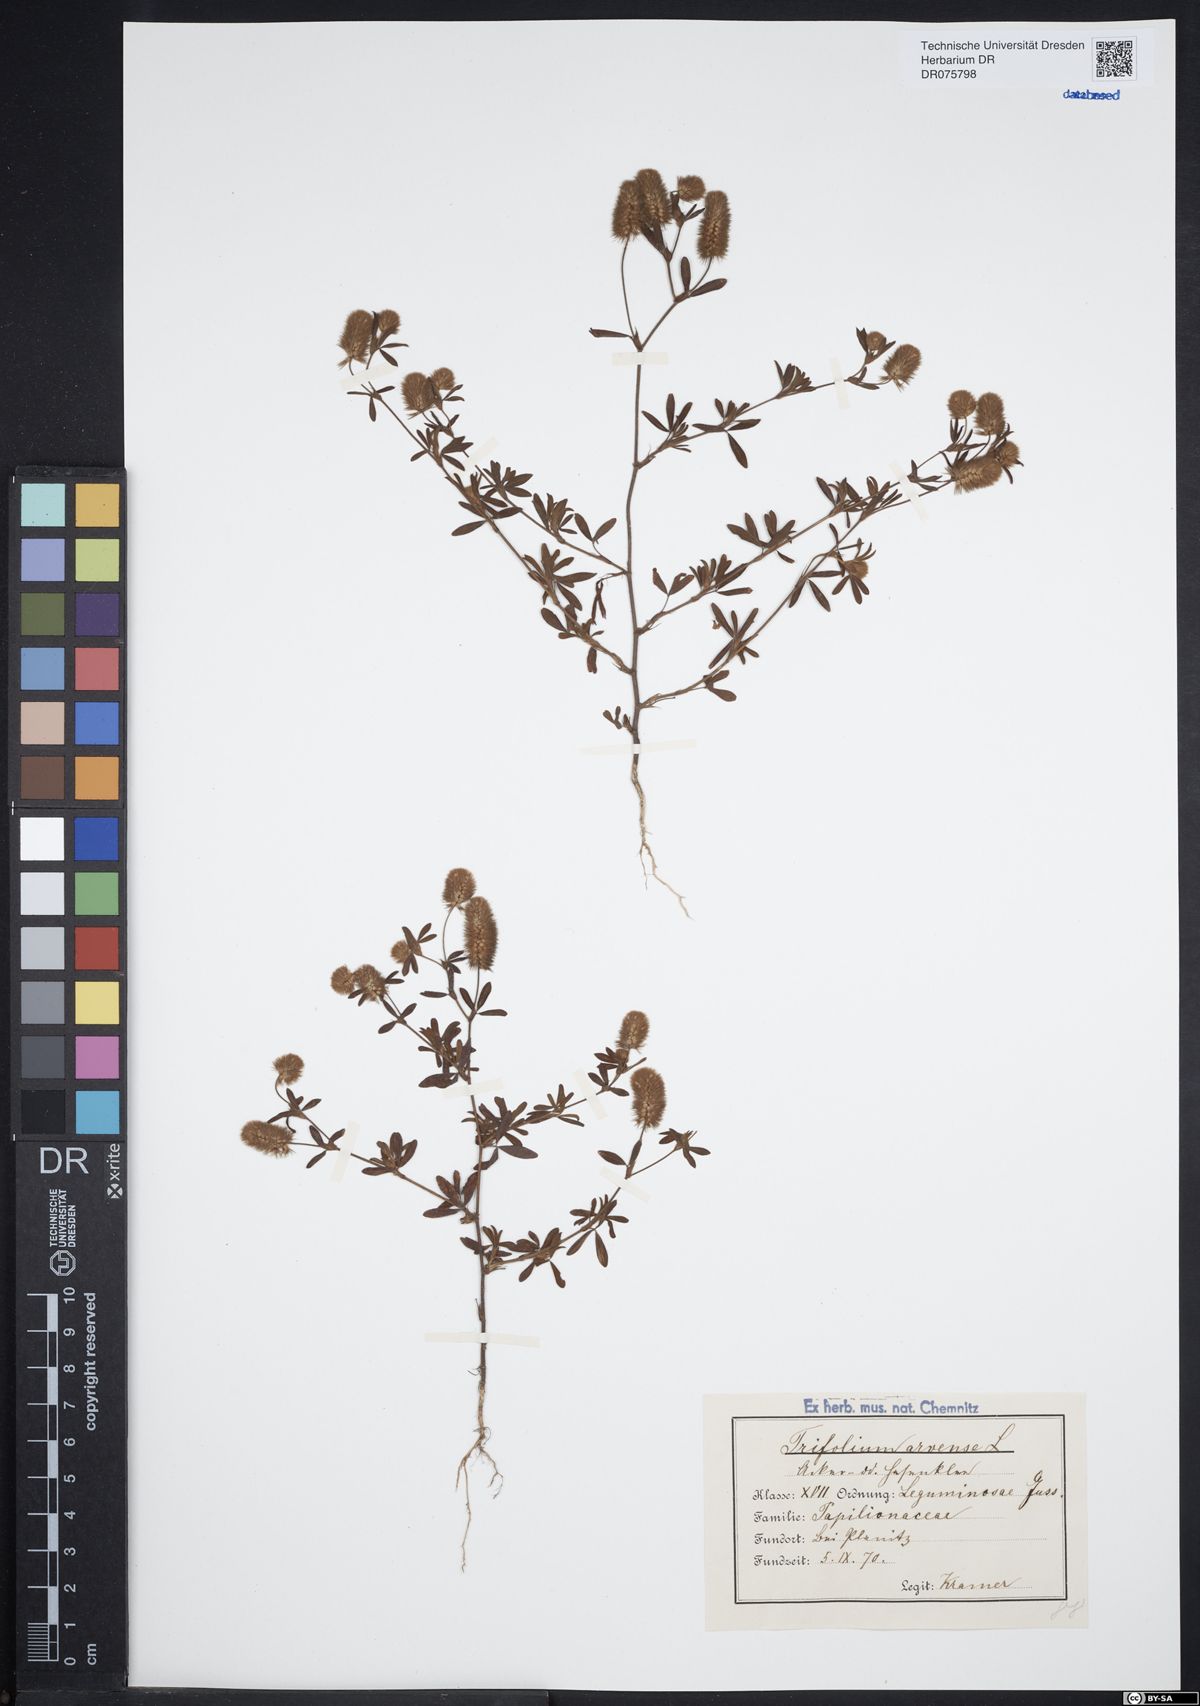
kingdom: Plantae
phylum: Tracheophyta
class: Magnoliopsida
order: Fabales
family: Fabaceae
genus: Trifolium
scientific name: Trifolium arvense
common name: Hare's-foot clover
